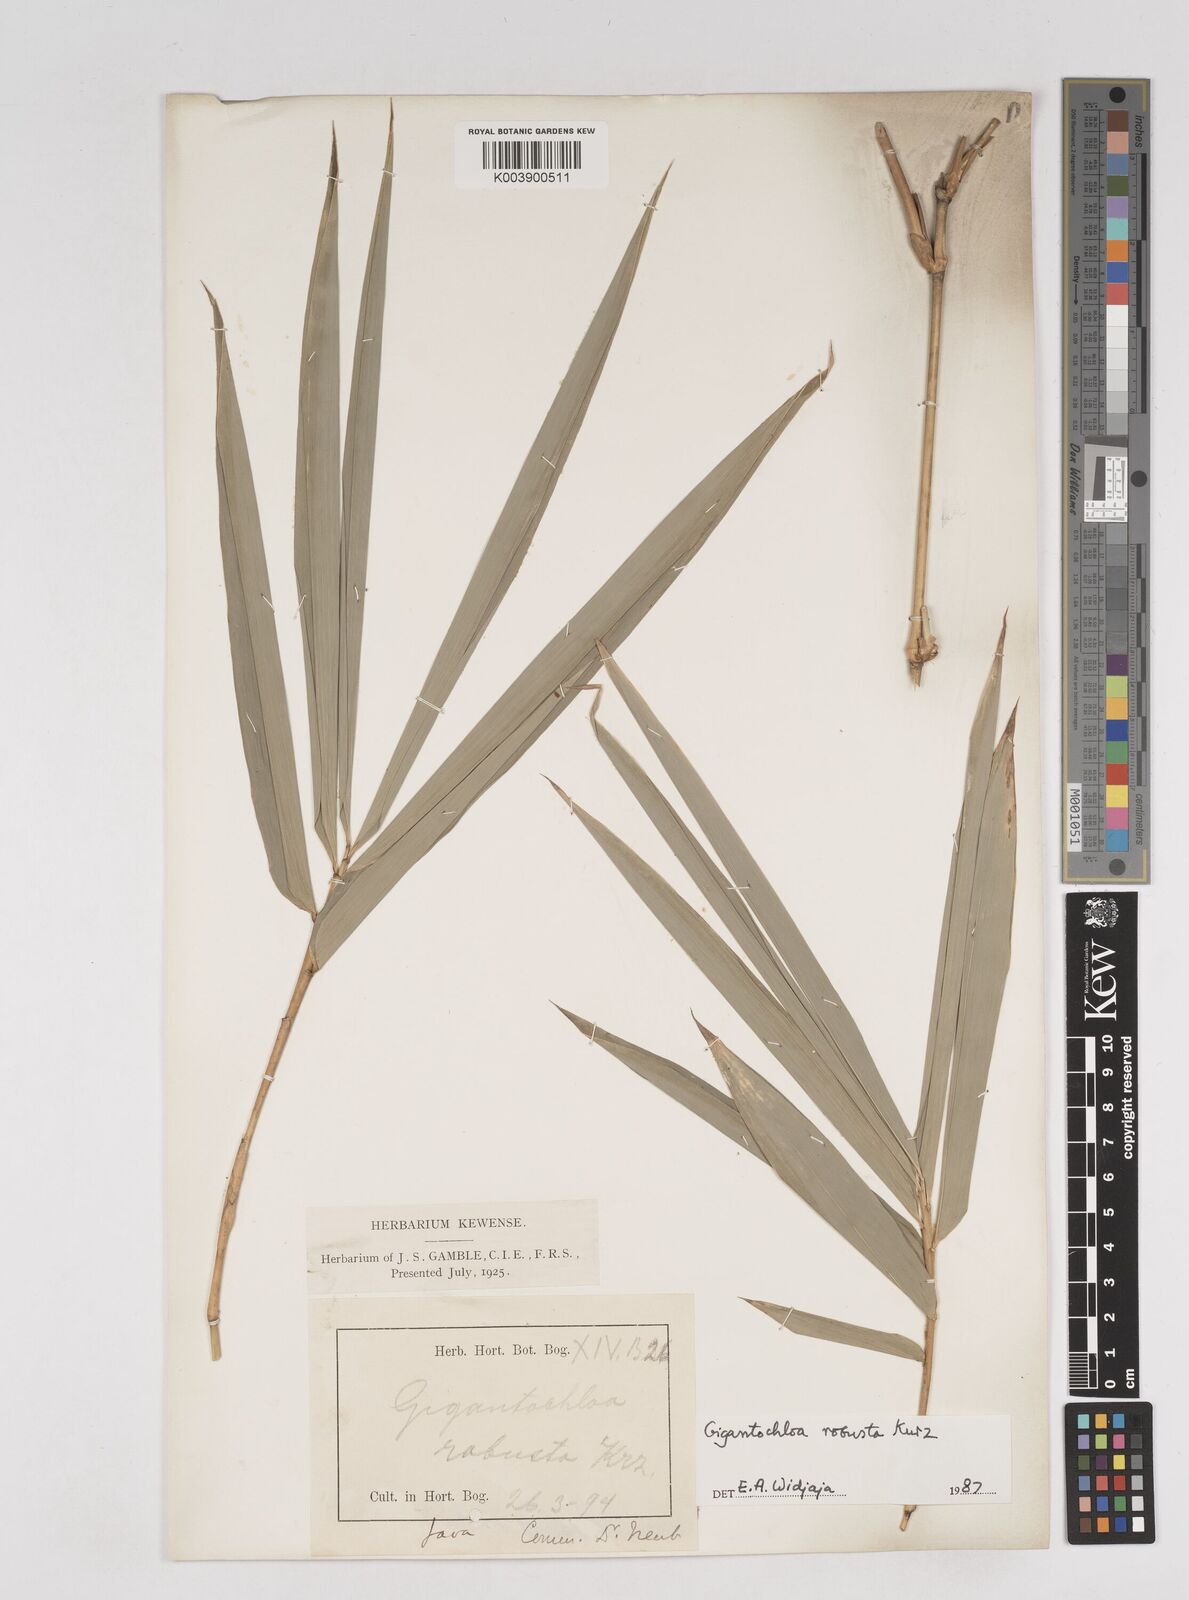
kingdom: Plantae
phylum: Tracheophyta
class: Liliopsida
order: Poales
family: Poaceae
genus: Gigantochloa
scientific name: Gigantochloa robusta
